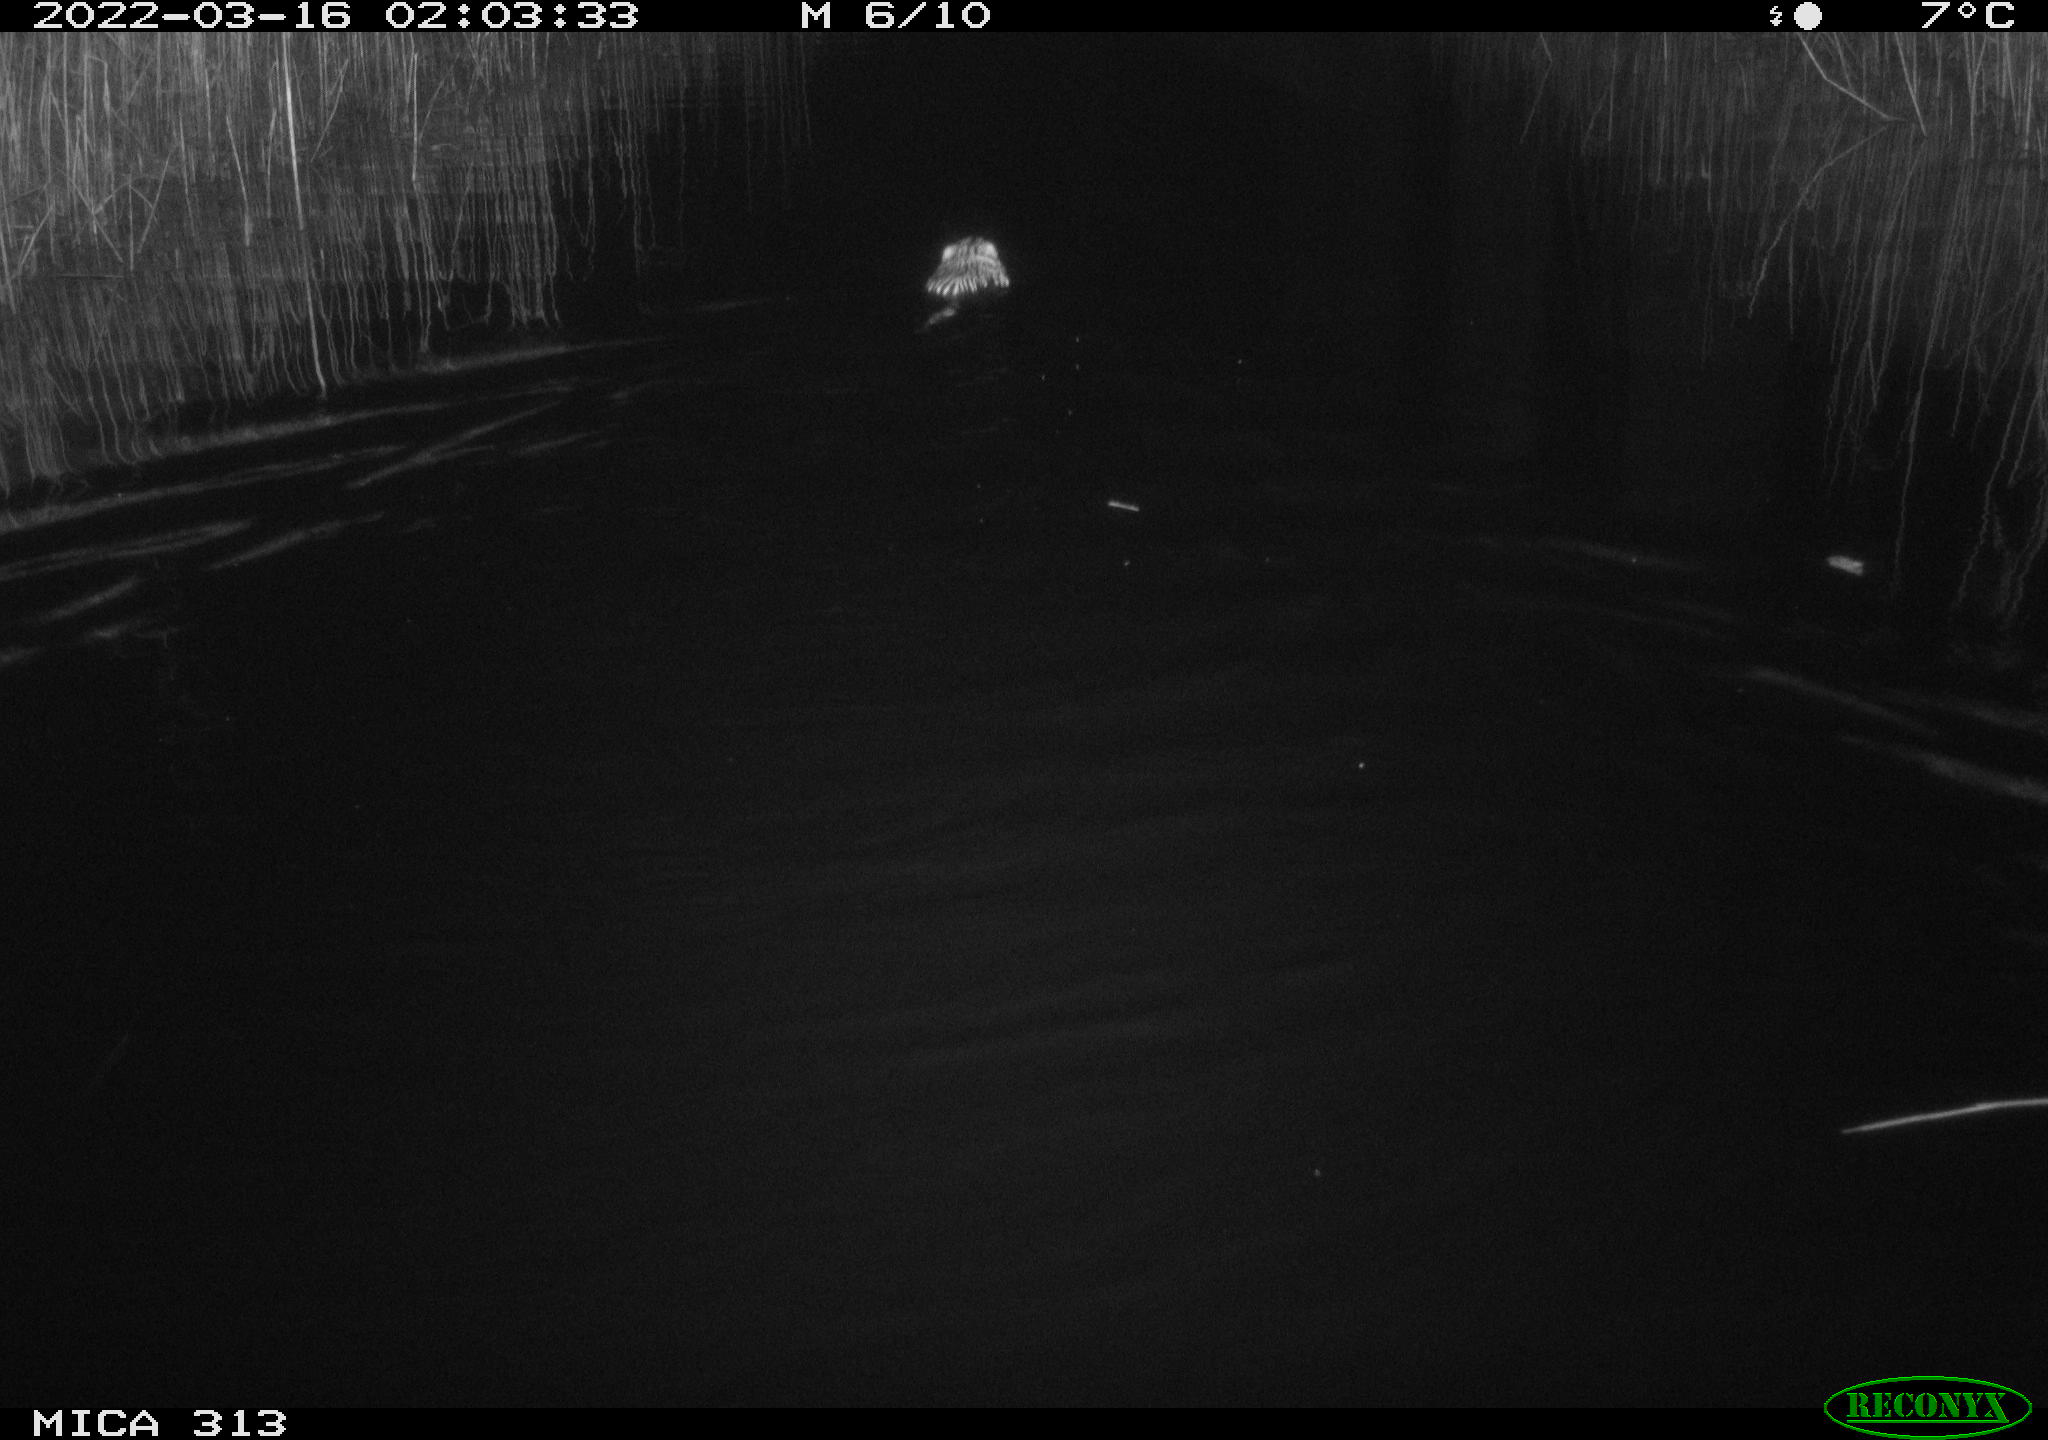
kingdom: Animalia
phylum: Chordata
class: Mammalia
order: Rodentia
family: Cricetidae
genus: Ondatra
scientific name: Ondatra zibethicus
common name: Muskrat
